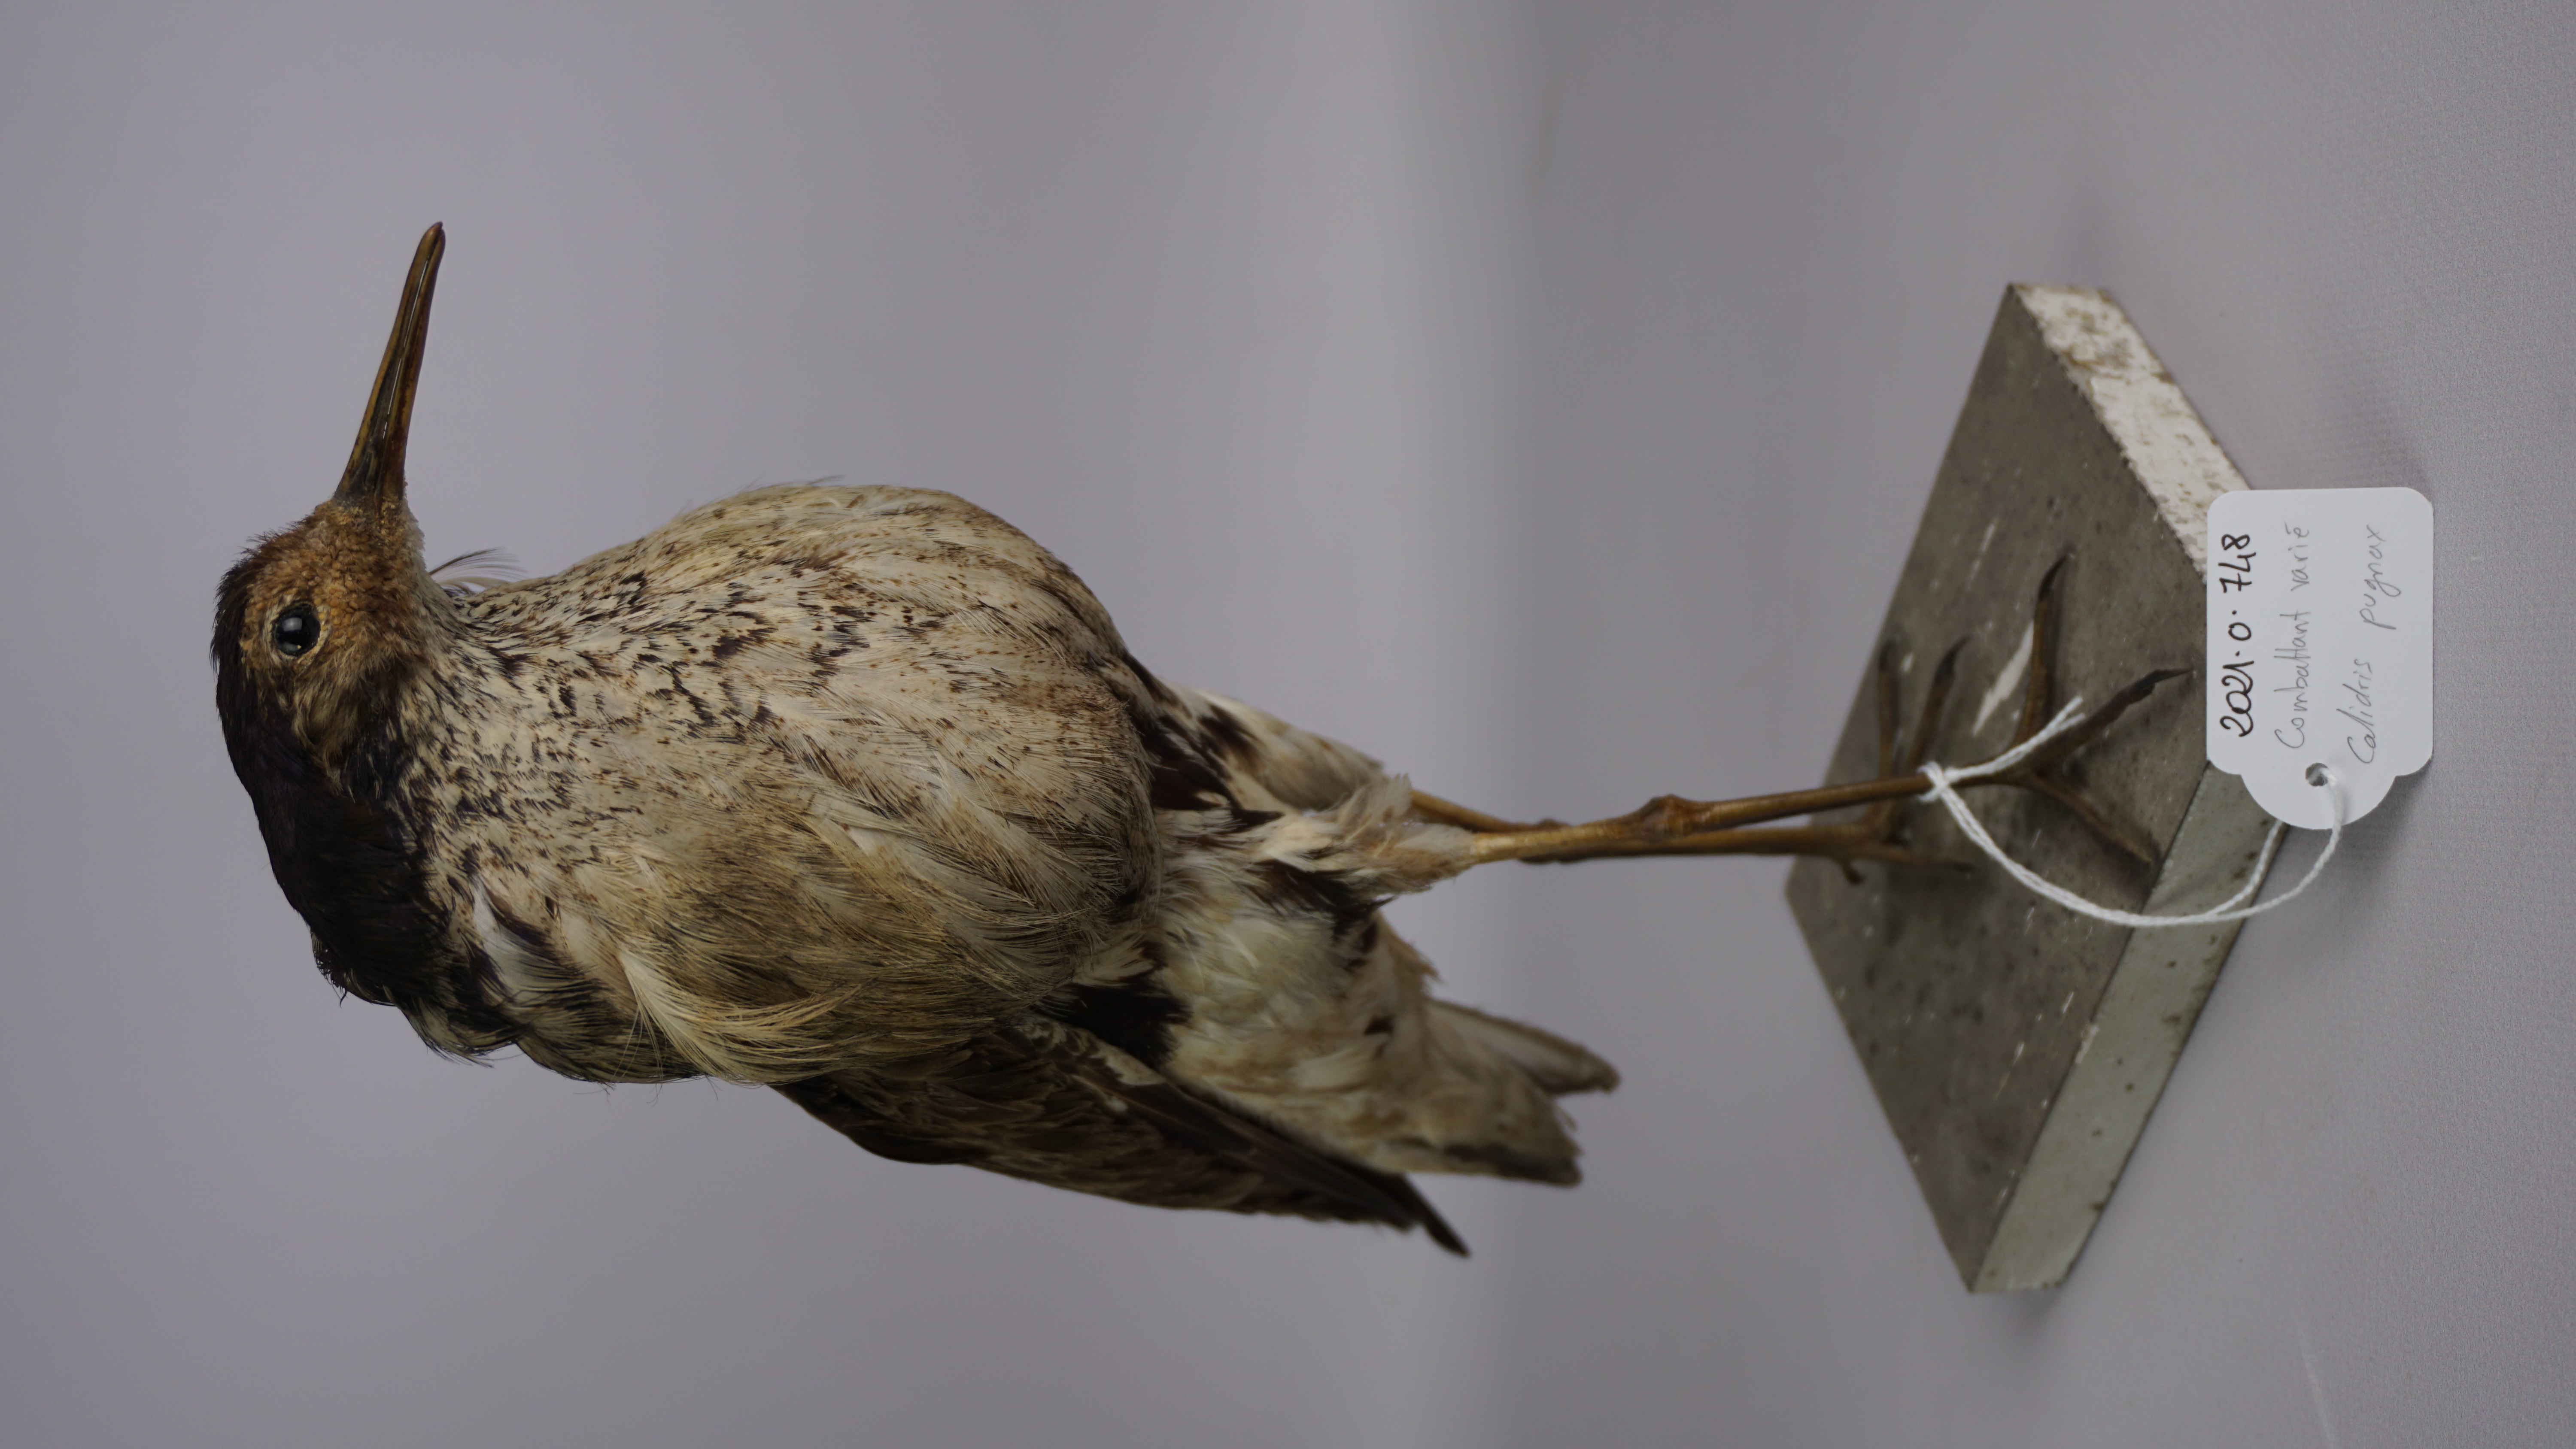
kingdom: Animalia
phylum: Chordata
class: Aves
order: Charadriiformes
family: Scolopacidae
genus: Calidris
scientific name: Calidris pugnax
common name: Ruff
